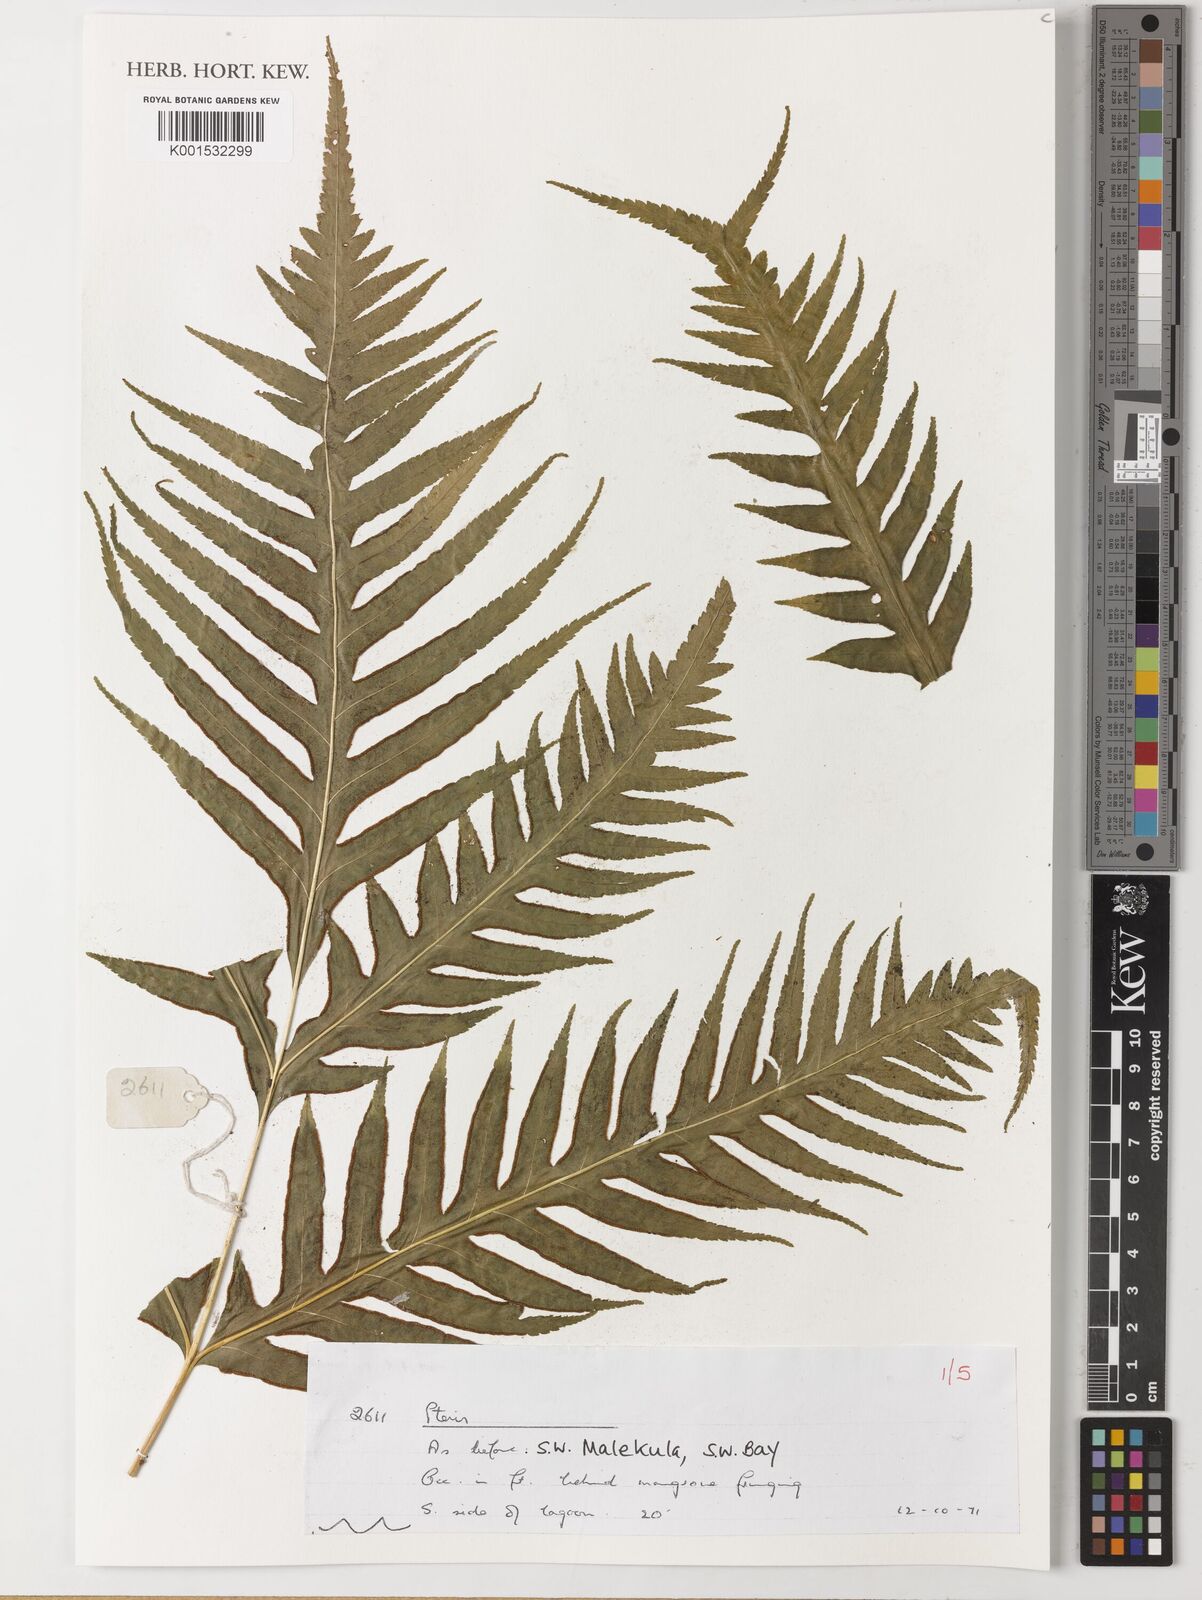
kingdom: Plantae
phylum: Tracheophyta
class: Polypodiopsida
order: Polypodiales
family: Pteridaceae
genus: Pteris
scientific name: Pteris
